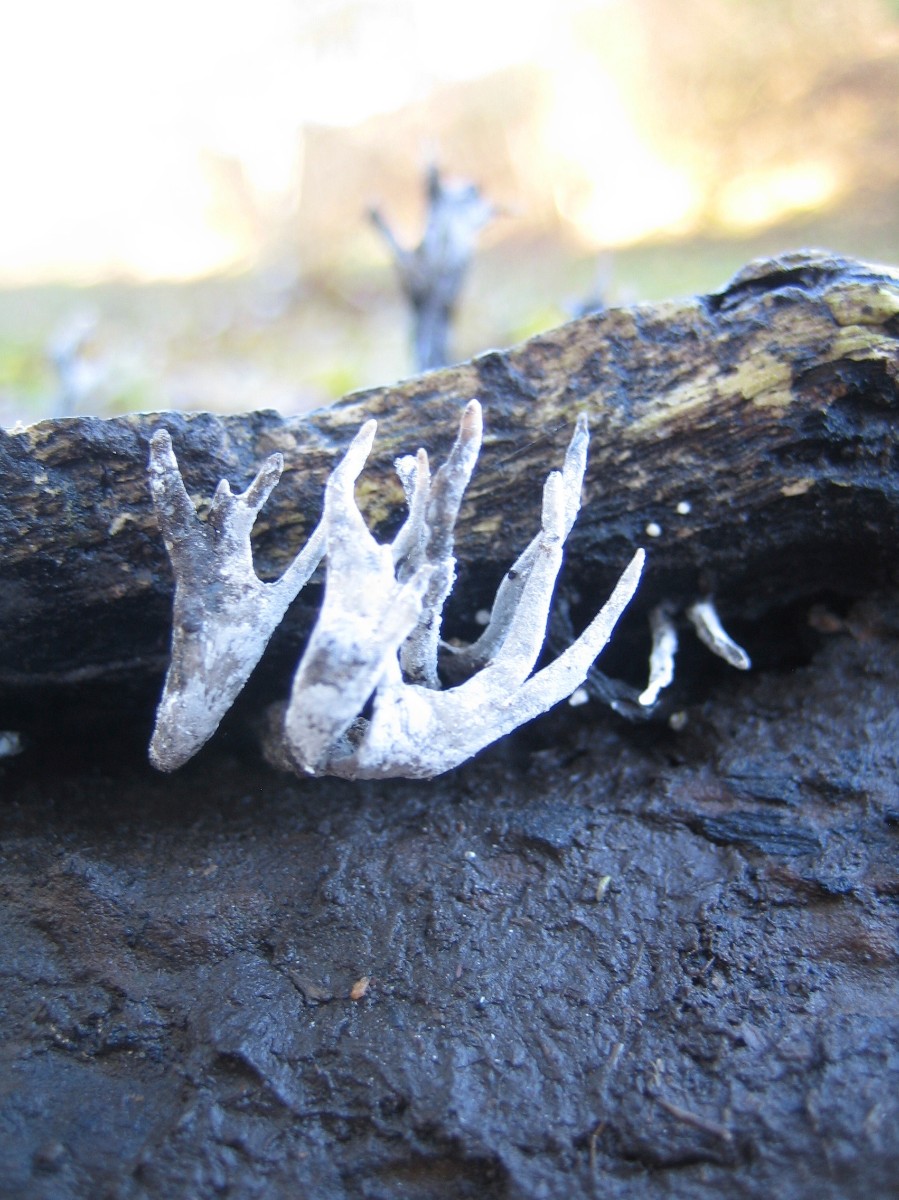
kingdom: Fungi
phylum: Ascomycota
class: Sordariomycetes
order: Xylariales
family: Xylariaceae
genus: Xylaria
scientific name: Xylaria hypoxylon
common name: grenet stødsvamp
